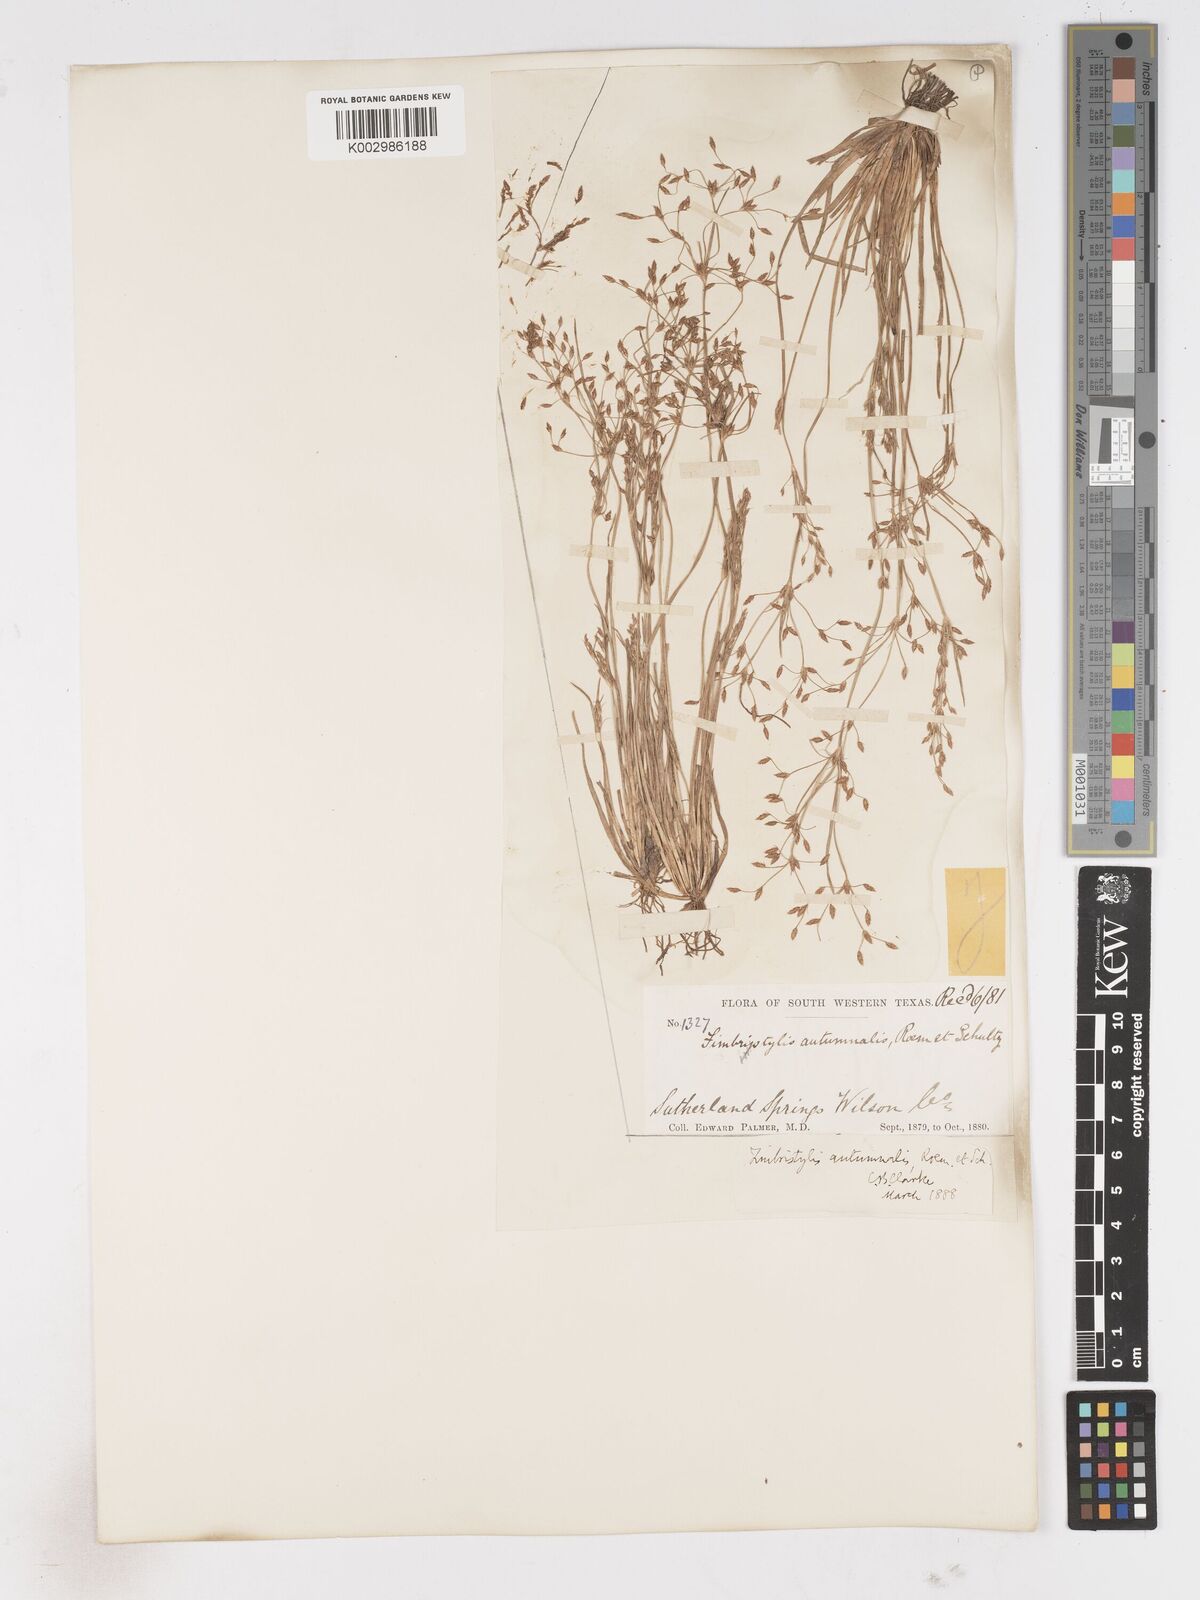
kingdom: Plantae
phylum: Tracheophyta
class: Liliopsida
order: Poales
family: Cyperaceae
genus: Fimbristylis
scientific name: Fimbristylis autumnalis
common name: Slender fimbristylis
